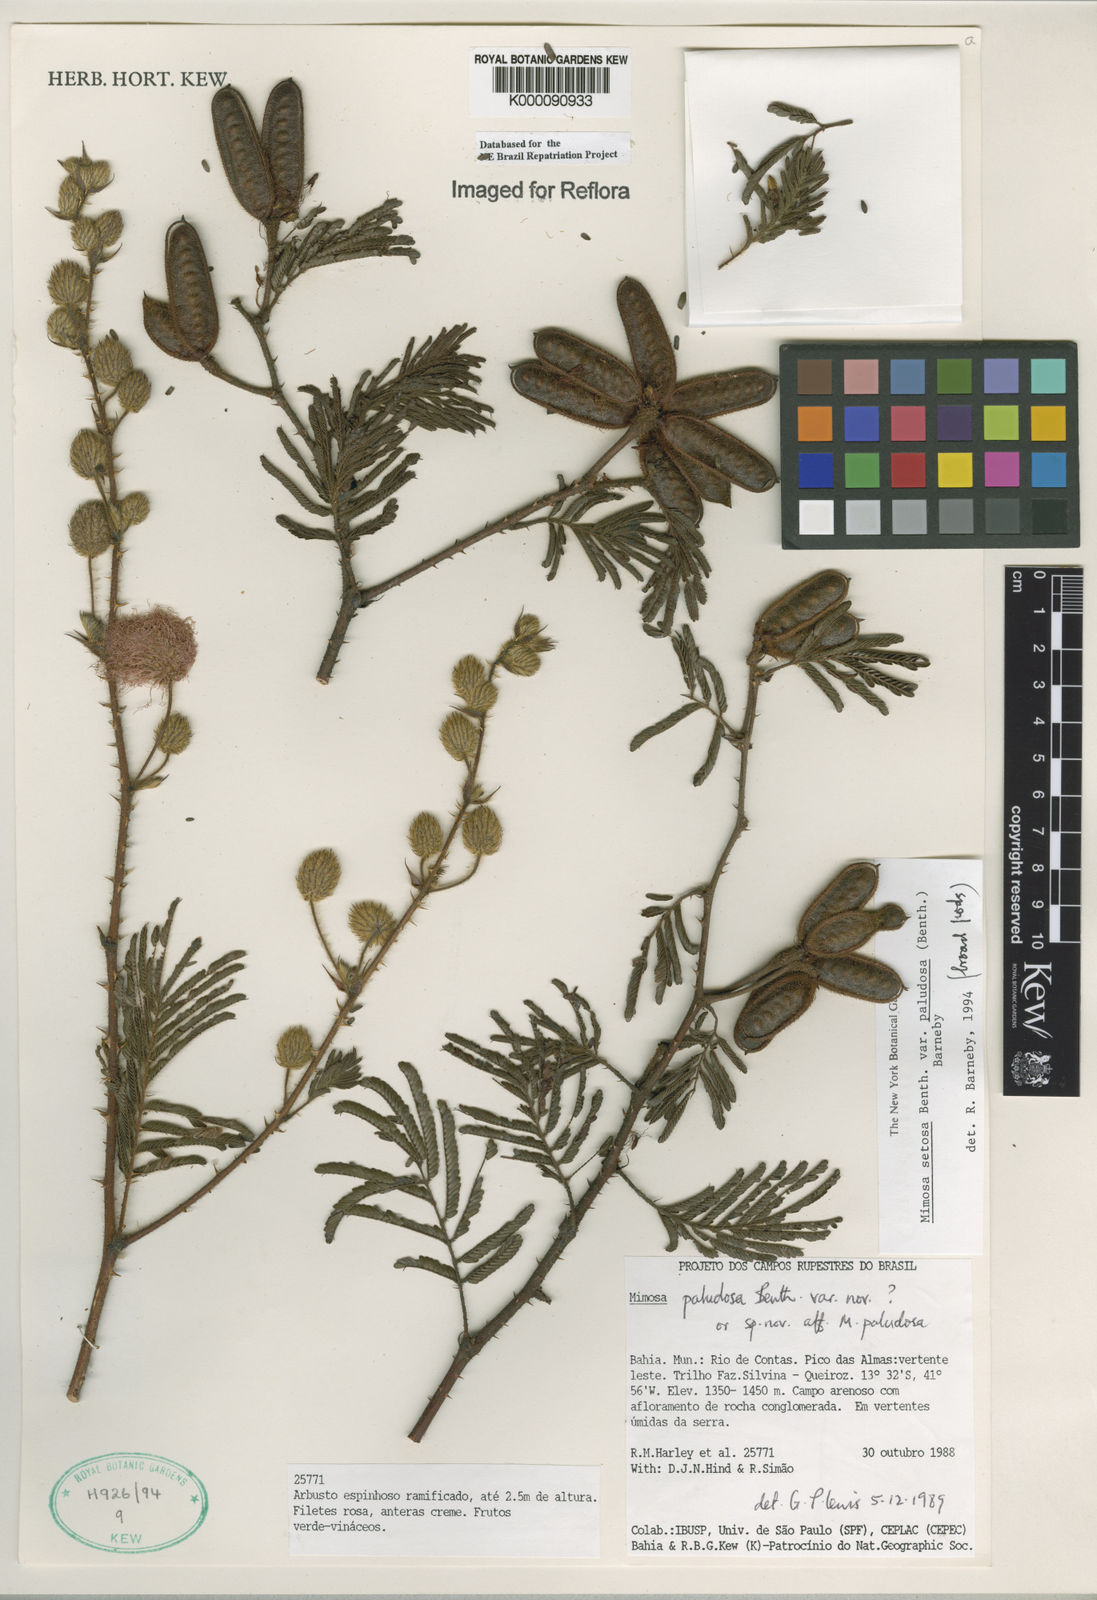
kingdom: Plantae
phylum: Tracheophyta
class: Magnoliopsida
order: Fabales
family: Fabaceae
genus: Mimosa
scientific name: Mimosa paludosa
